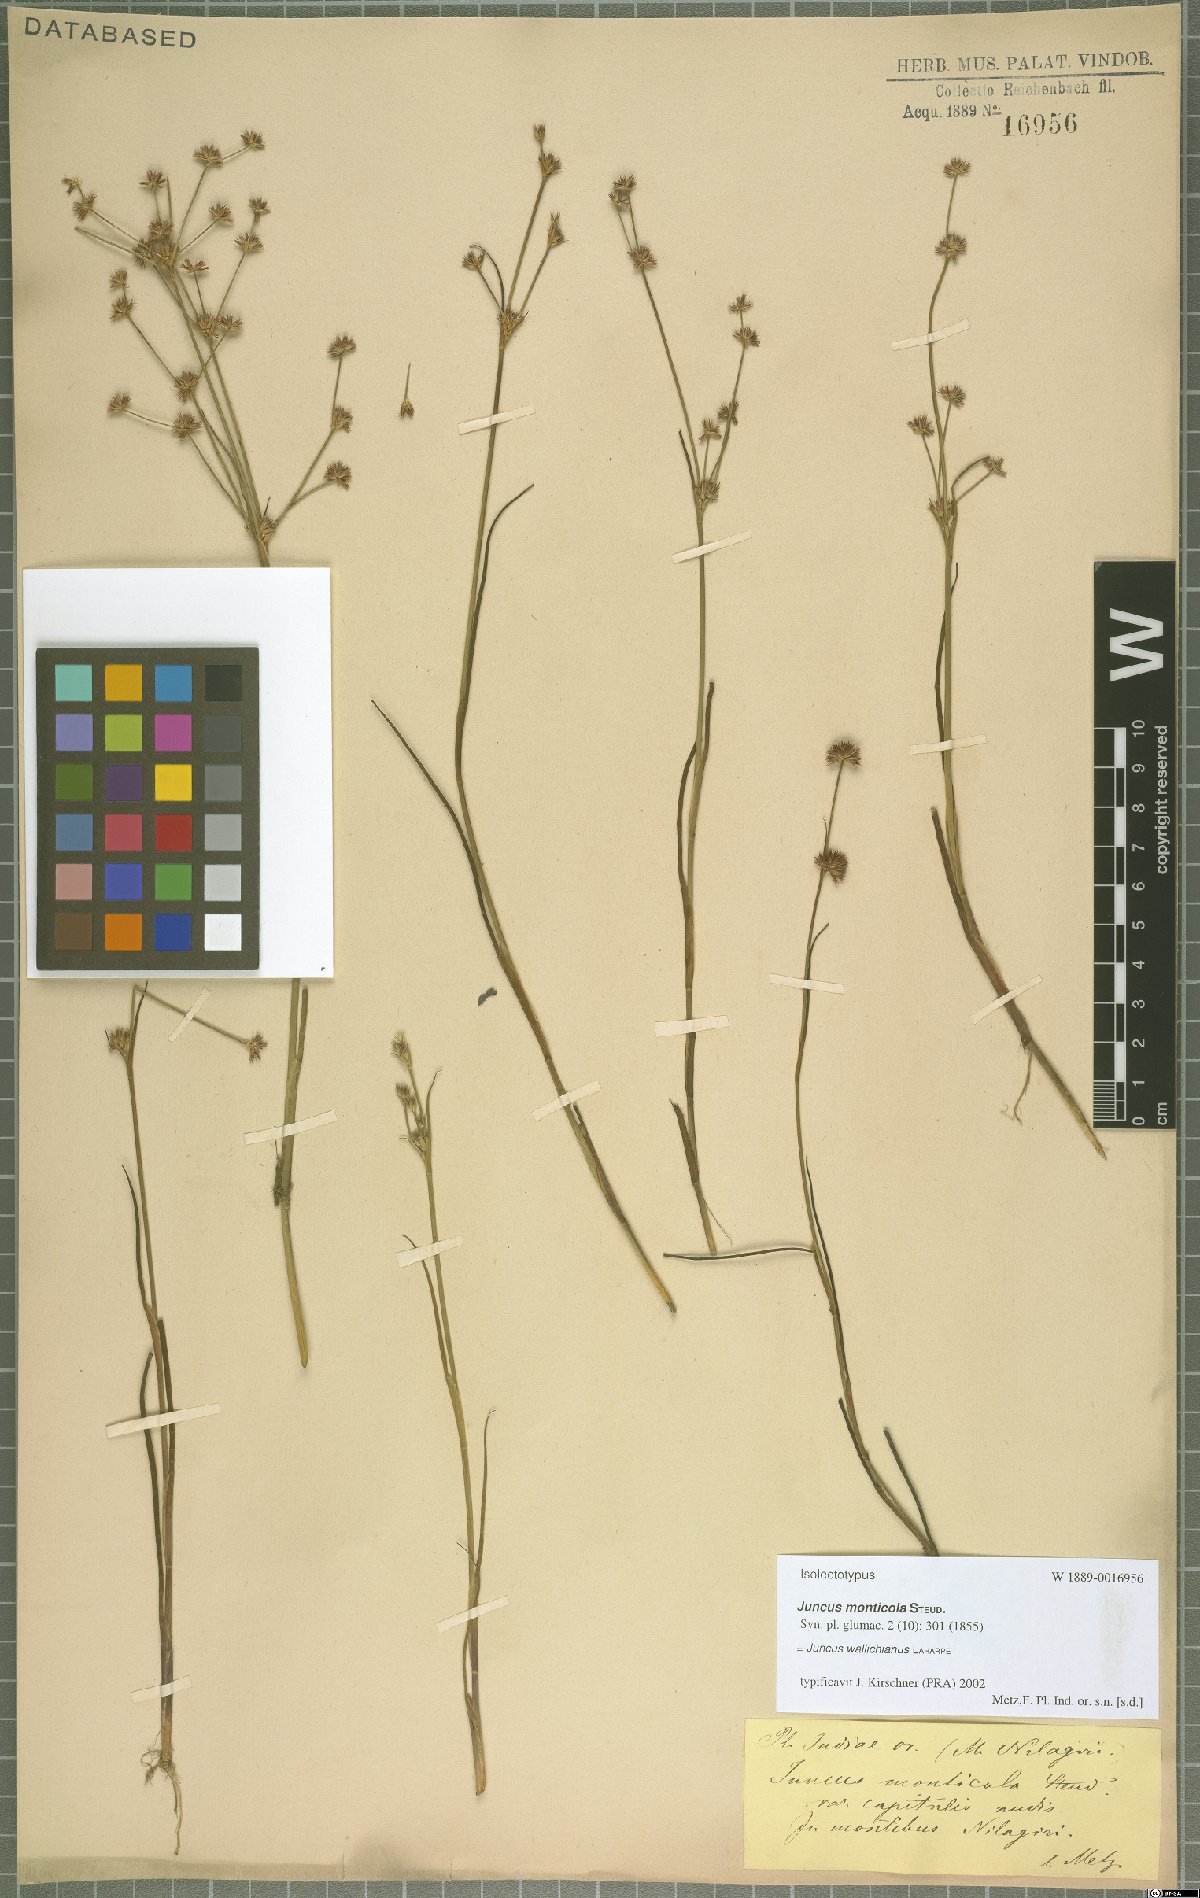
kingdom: Plantae
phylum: Tracheophyta
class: Liliopsida
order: Poales
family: Juncaceae
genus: Juncus
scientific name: Juncus wallichianus
